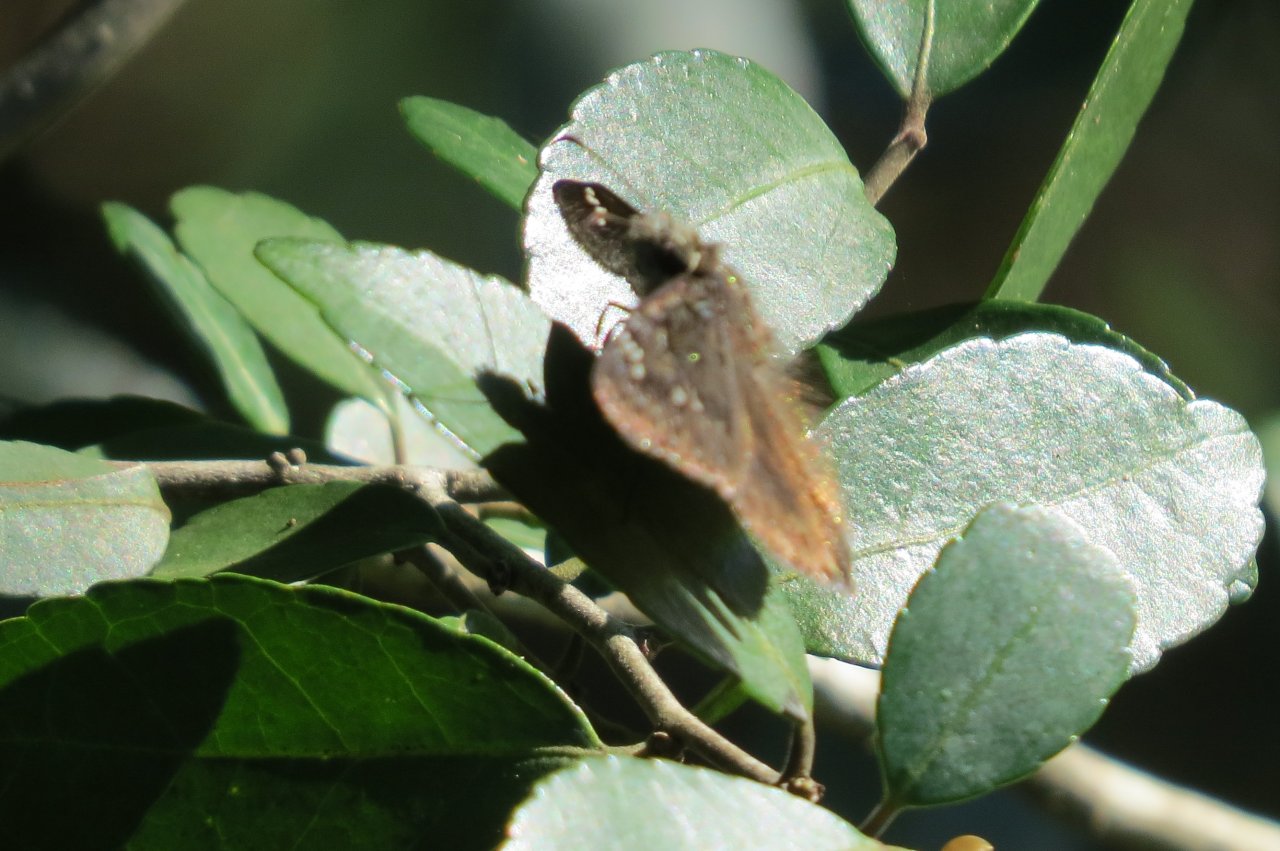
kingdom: Animalia
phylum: Arthropoda
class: Insecta
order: Lepidoptera
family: Hesperiidae
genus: Erynnis
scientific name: Erynnis zarucco
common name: Zarucco Duskywing
